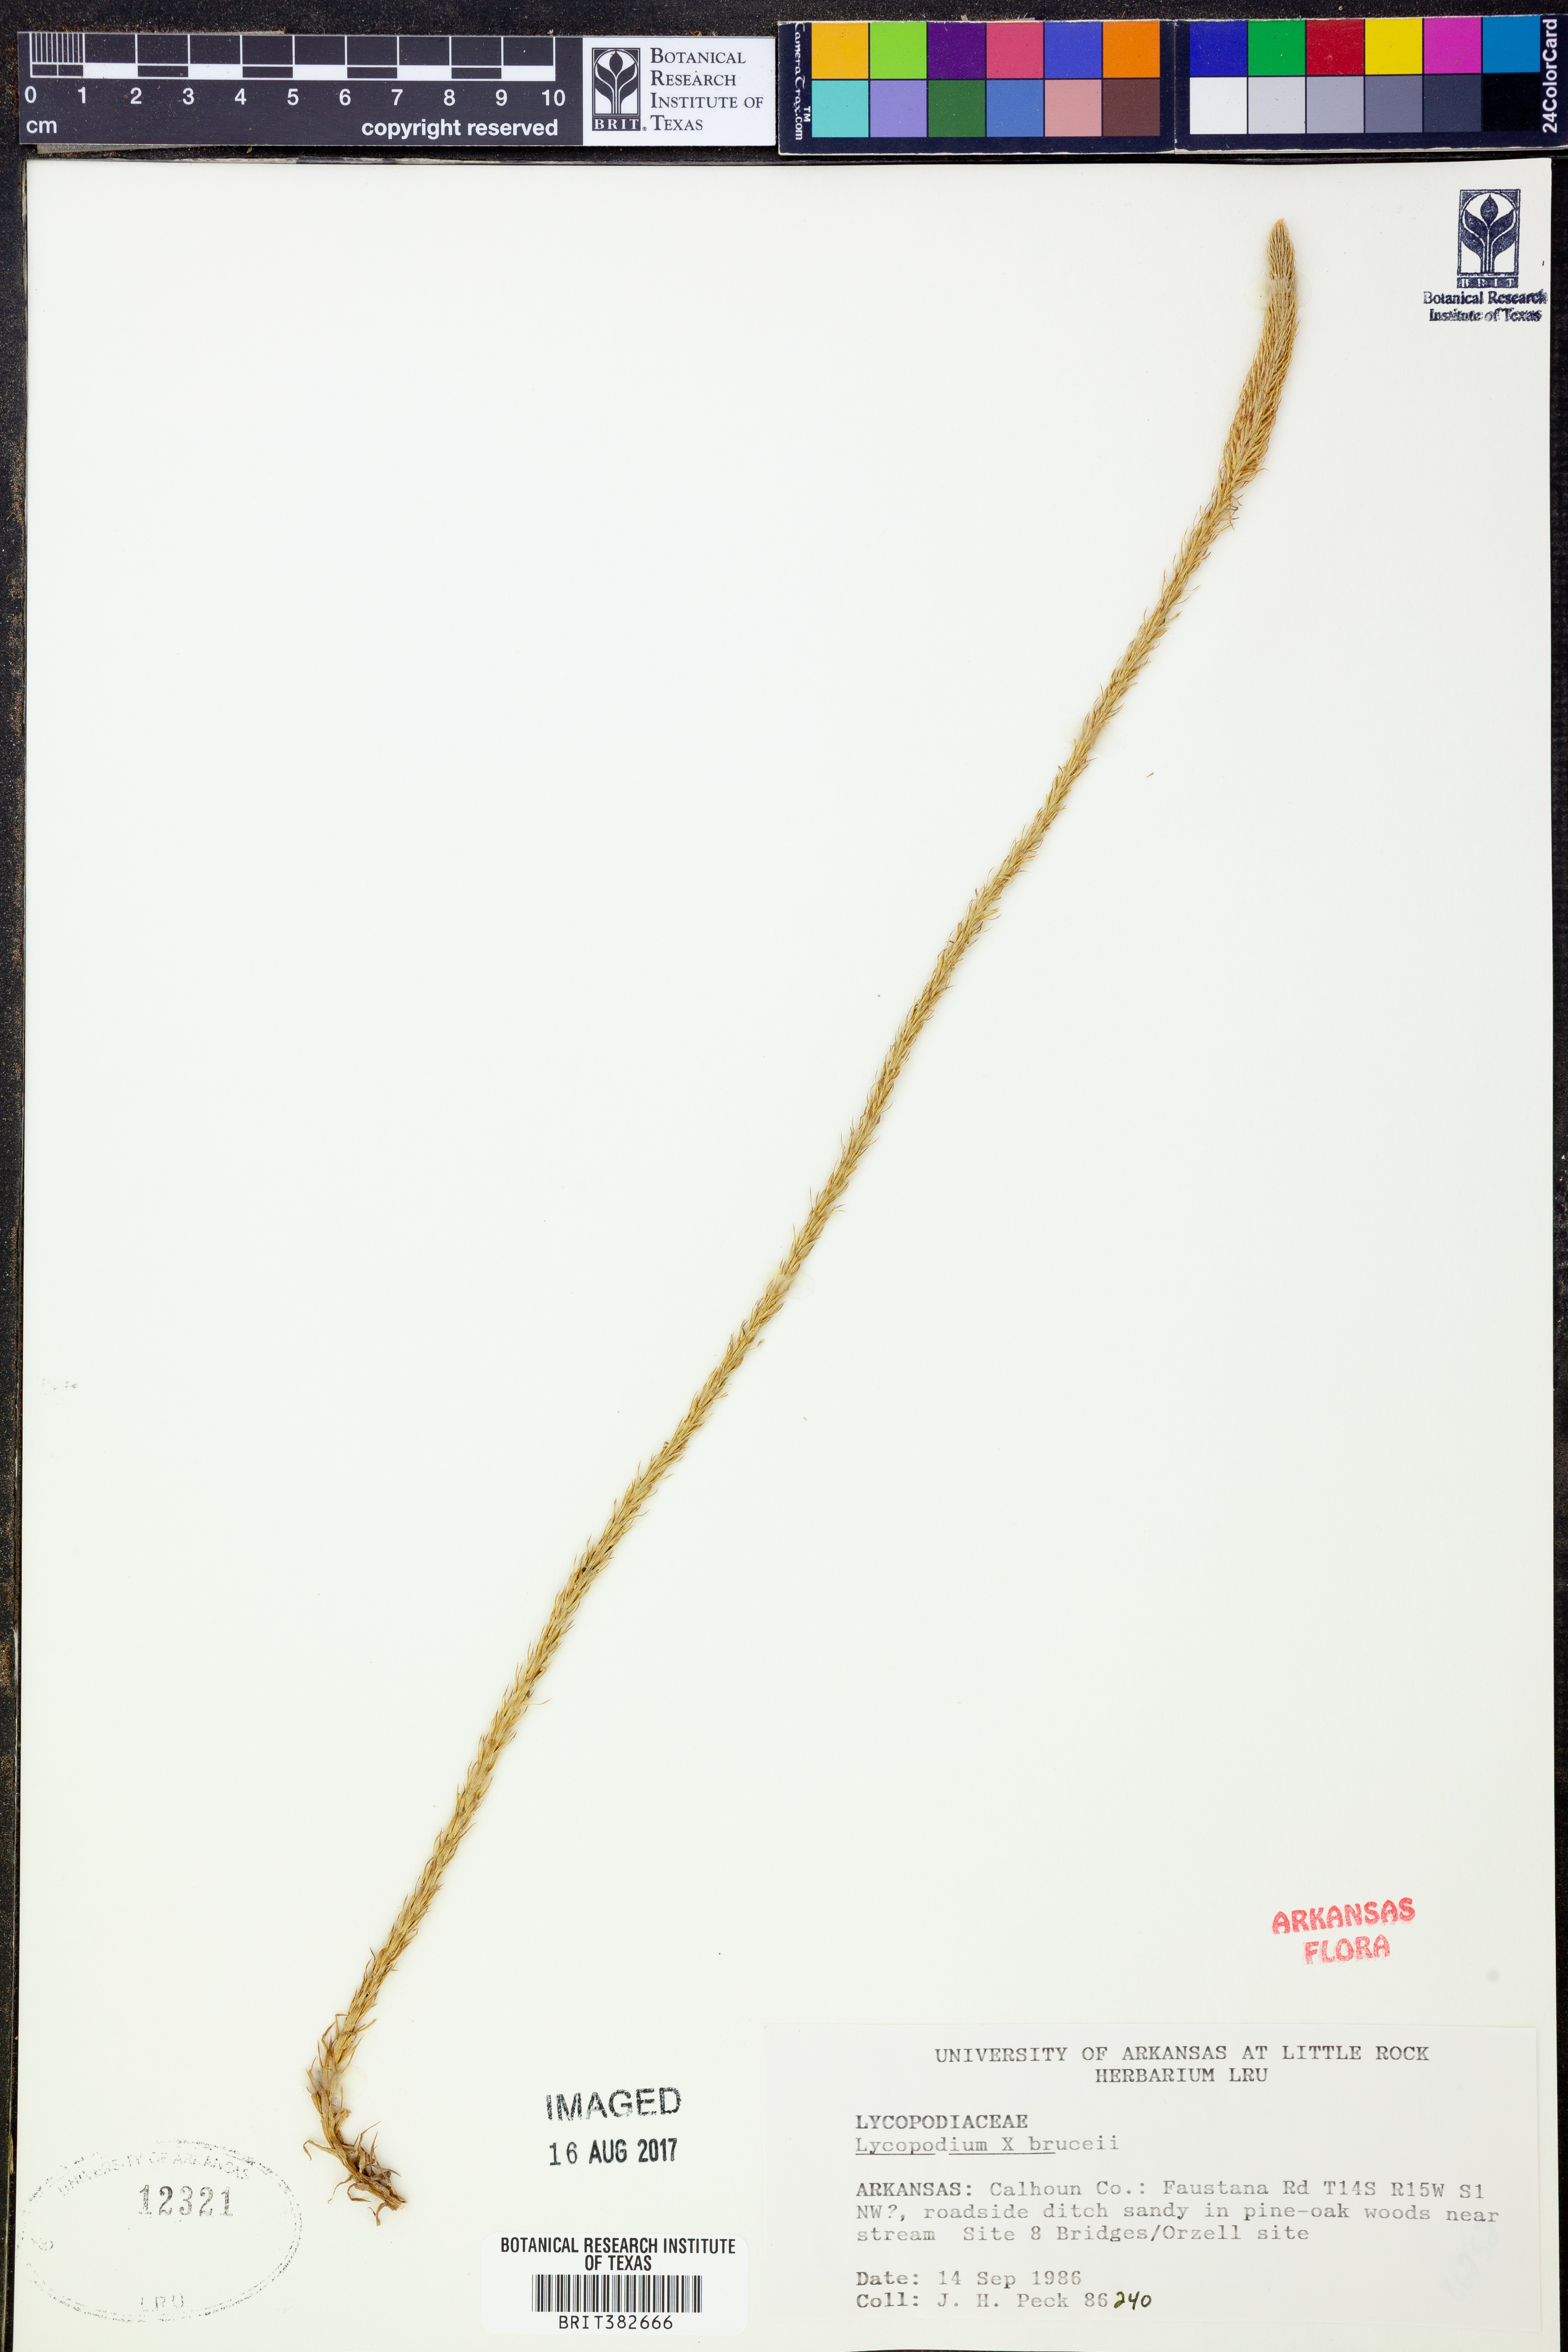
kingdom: Plantae
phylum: Tracheophyta
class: Lycopodiopsida
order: Lycopodiales
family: Lycopodiaceae
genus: Lycopodiella
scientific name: Lycopodiella brucei
